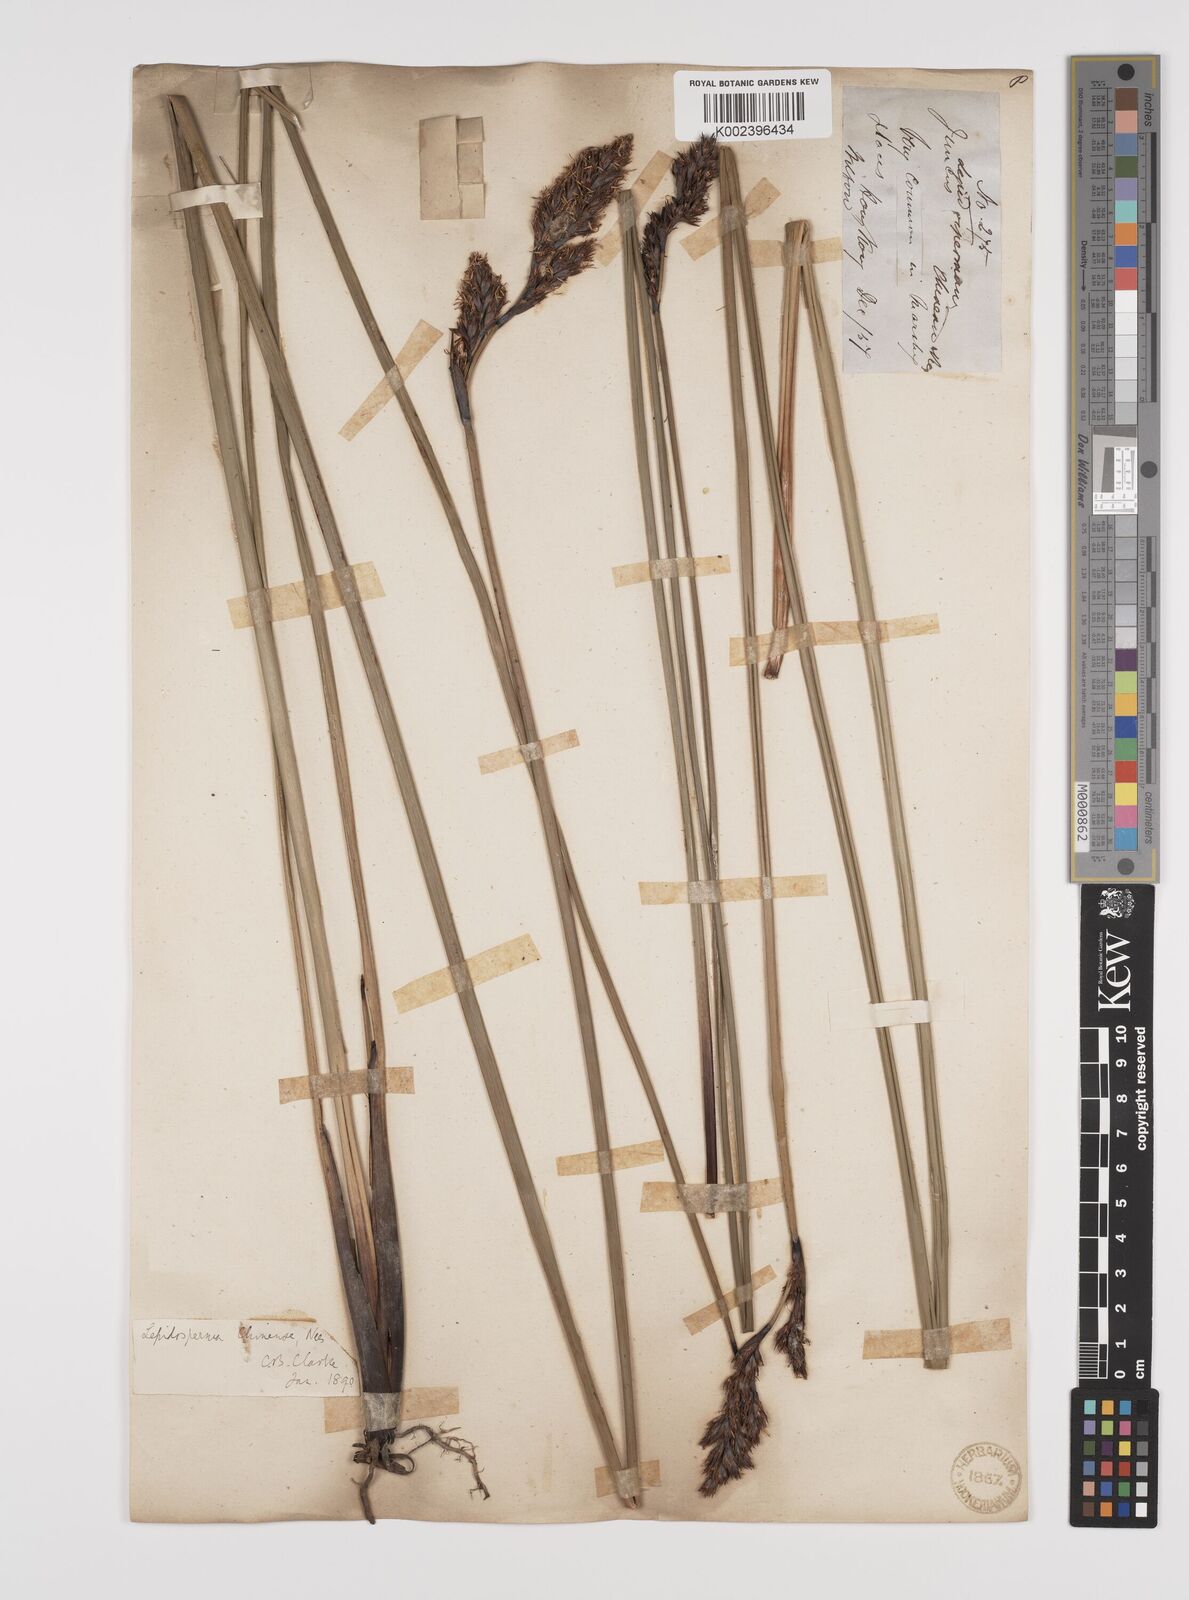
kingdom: Plantae
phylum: Tracheophyta
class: Liliopsida
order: Poales
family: Cyperaceae
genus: Lepidosperma
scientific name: Lepidosperma chinense
